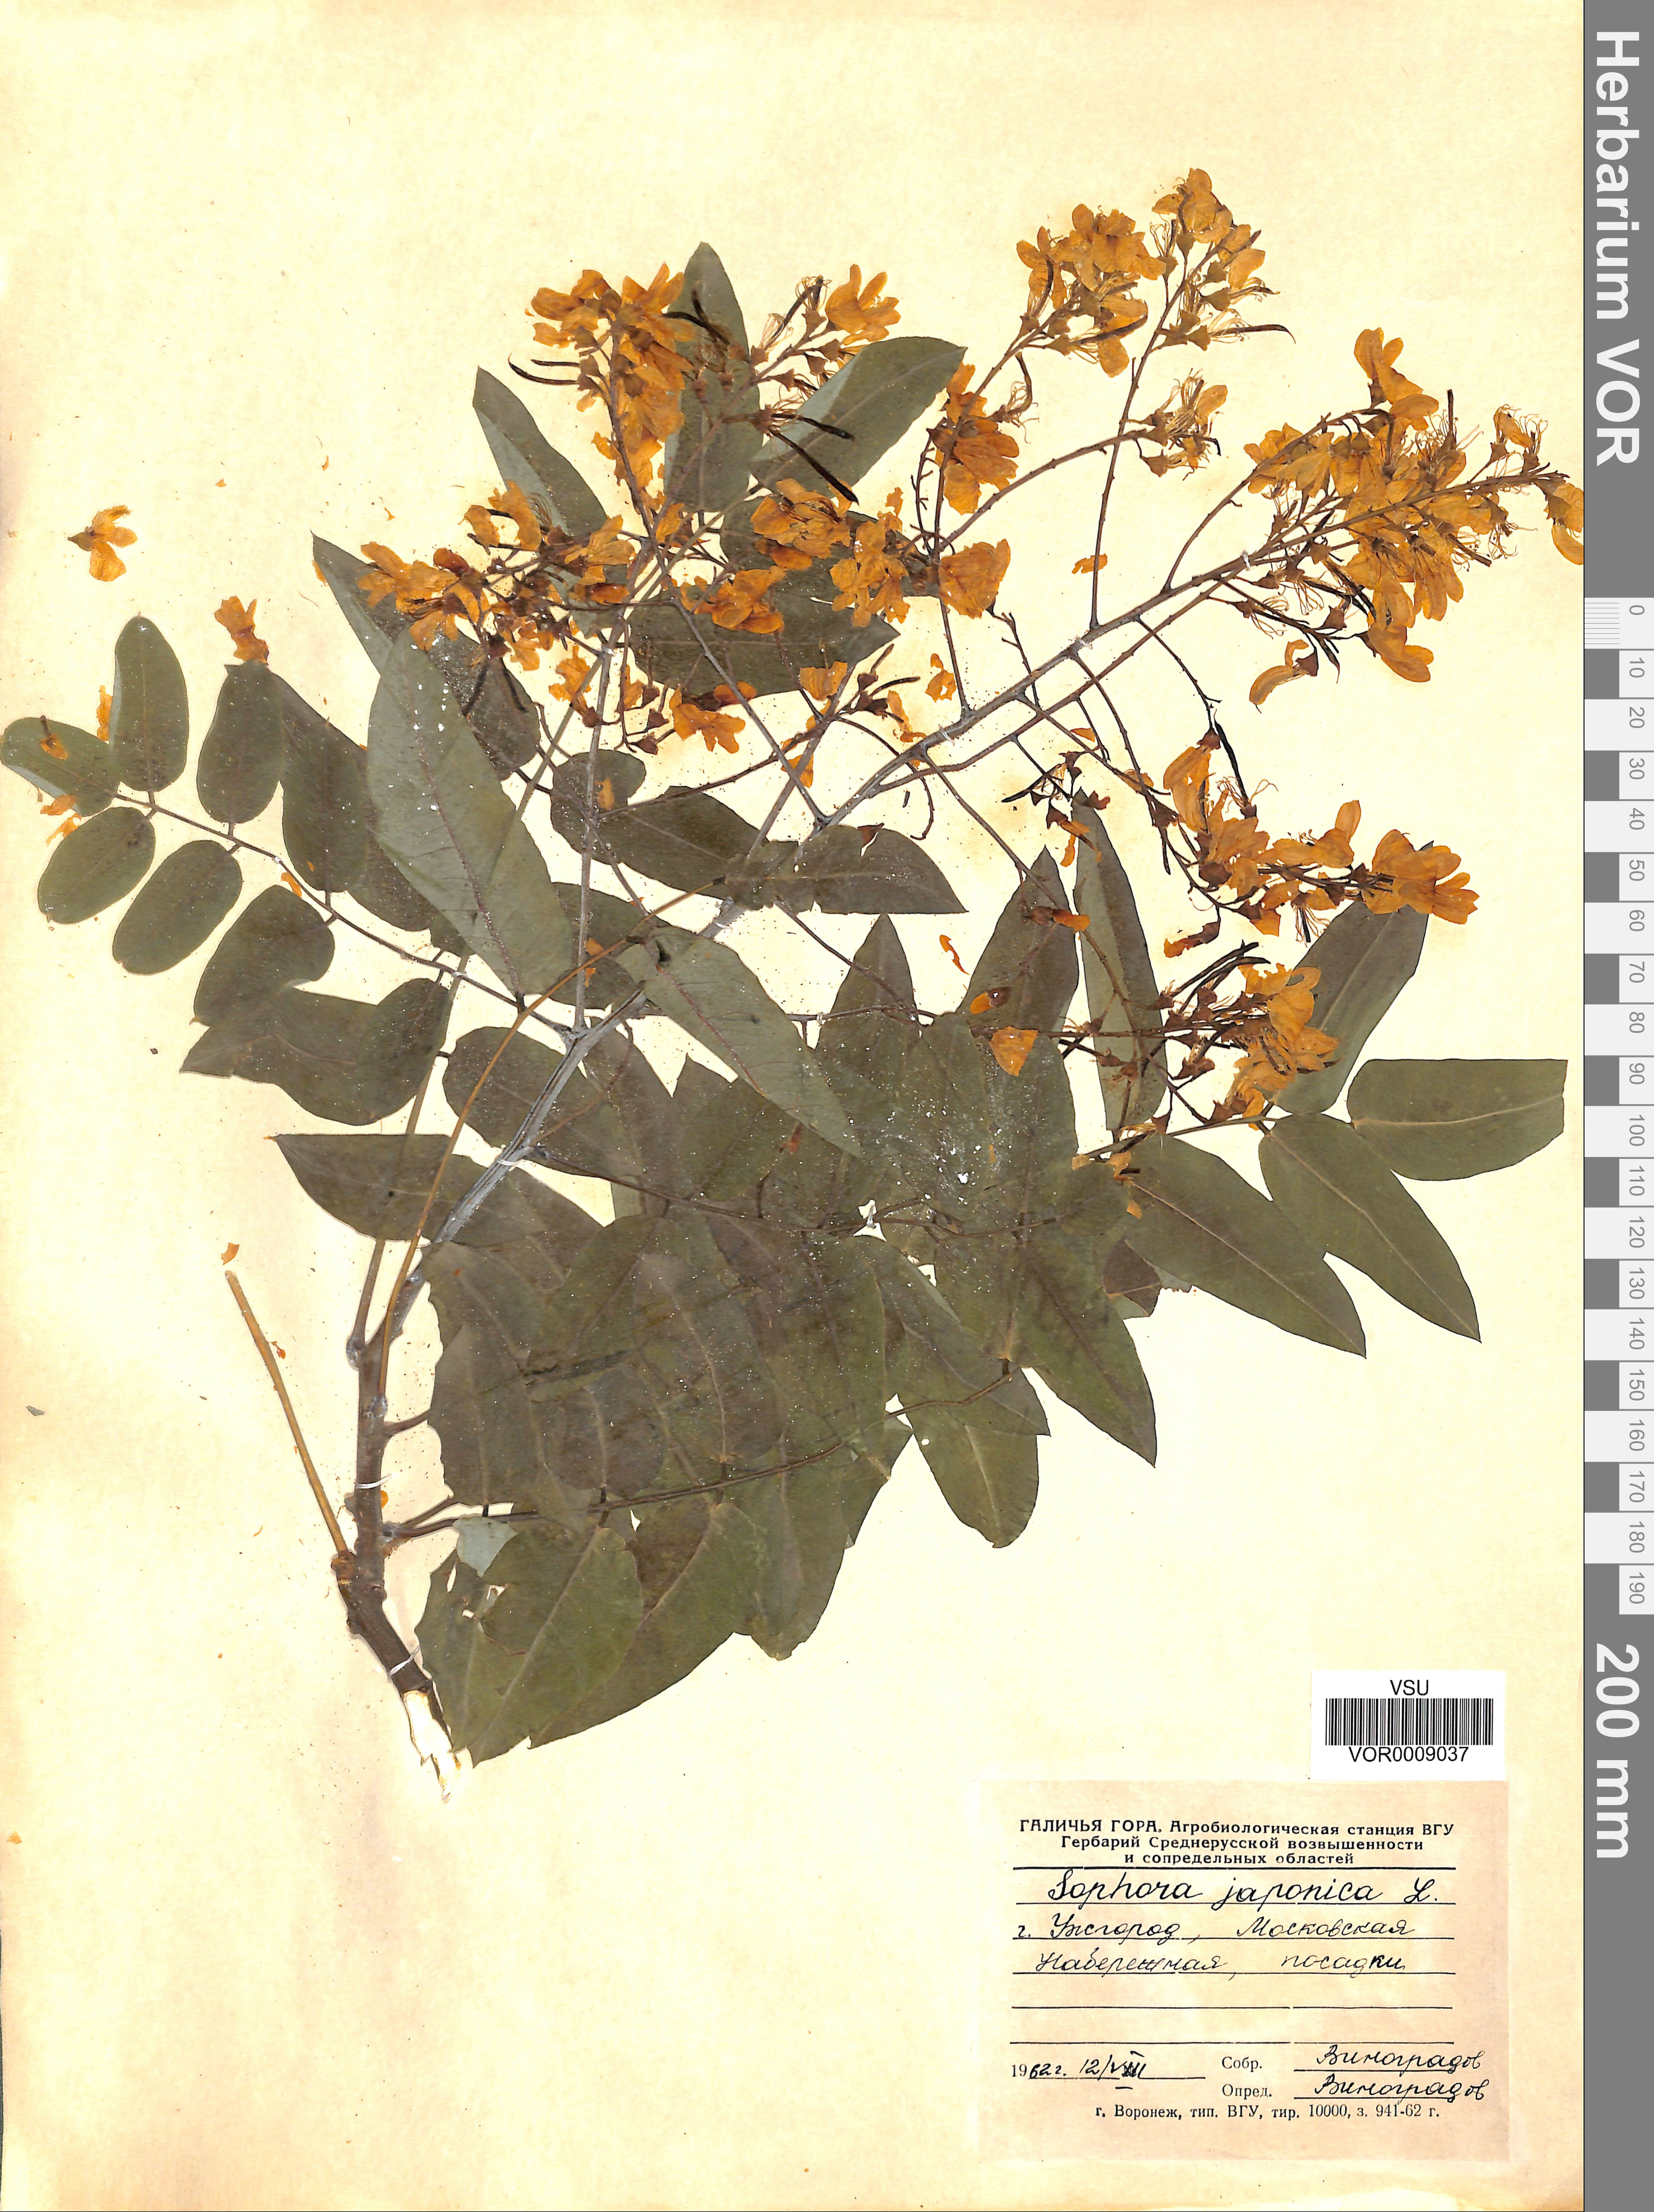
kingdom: Plantae
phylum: Tracheophyta
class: Magnoliopsida
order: Fabales
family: Fabaceae
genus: Styphnolobium
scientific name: Styphnolobium japonicum
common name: Chinese scholartree
